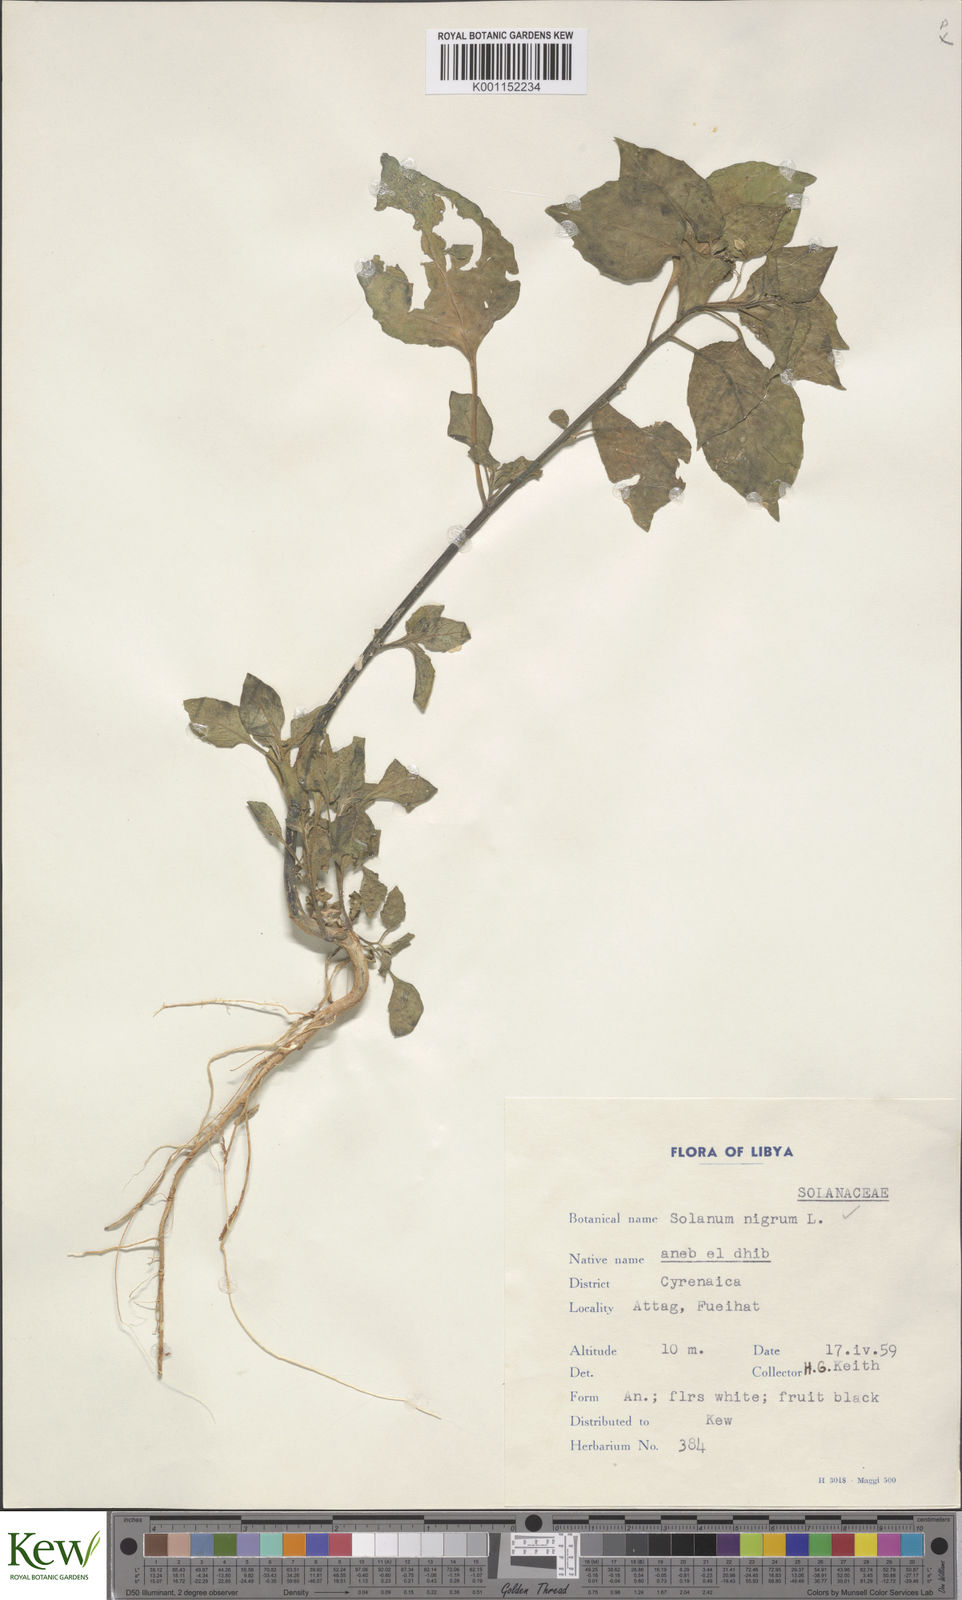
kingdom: Plantae
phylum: Tracheophyta
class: Magnoliopsida
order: Solanales
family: Solanaceae
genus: Solanum
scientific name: Solanum nigrum
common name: Black nightshade
